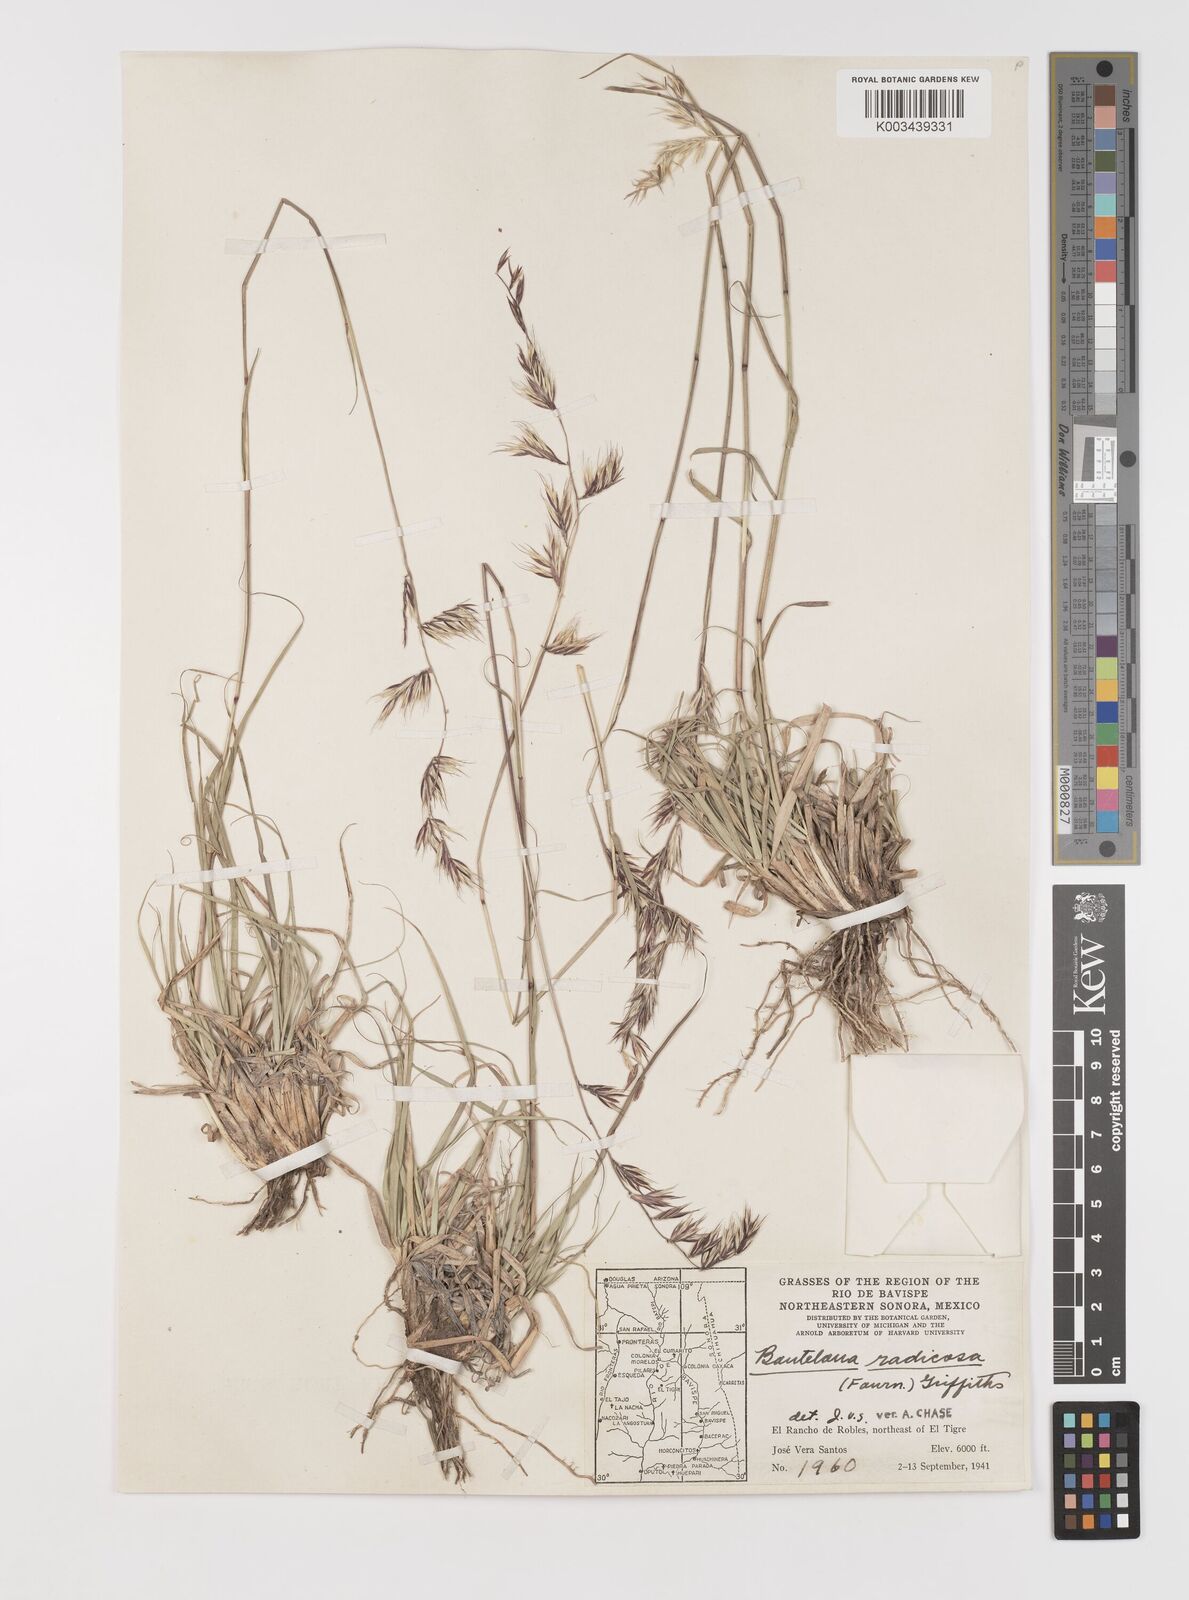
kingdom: Plantae
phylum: Tracheophyta
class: Liliopsida
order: Poales
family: Poaceae
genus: Bouteloua
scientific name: Bouteloua radicosa
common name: Purple grama
